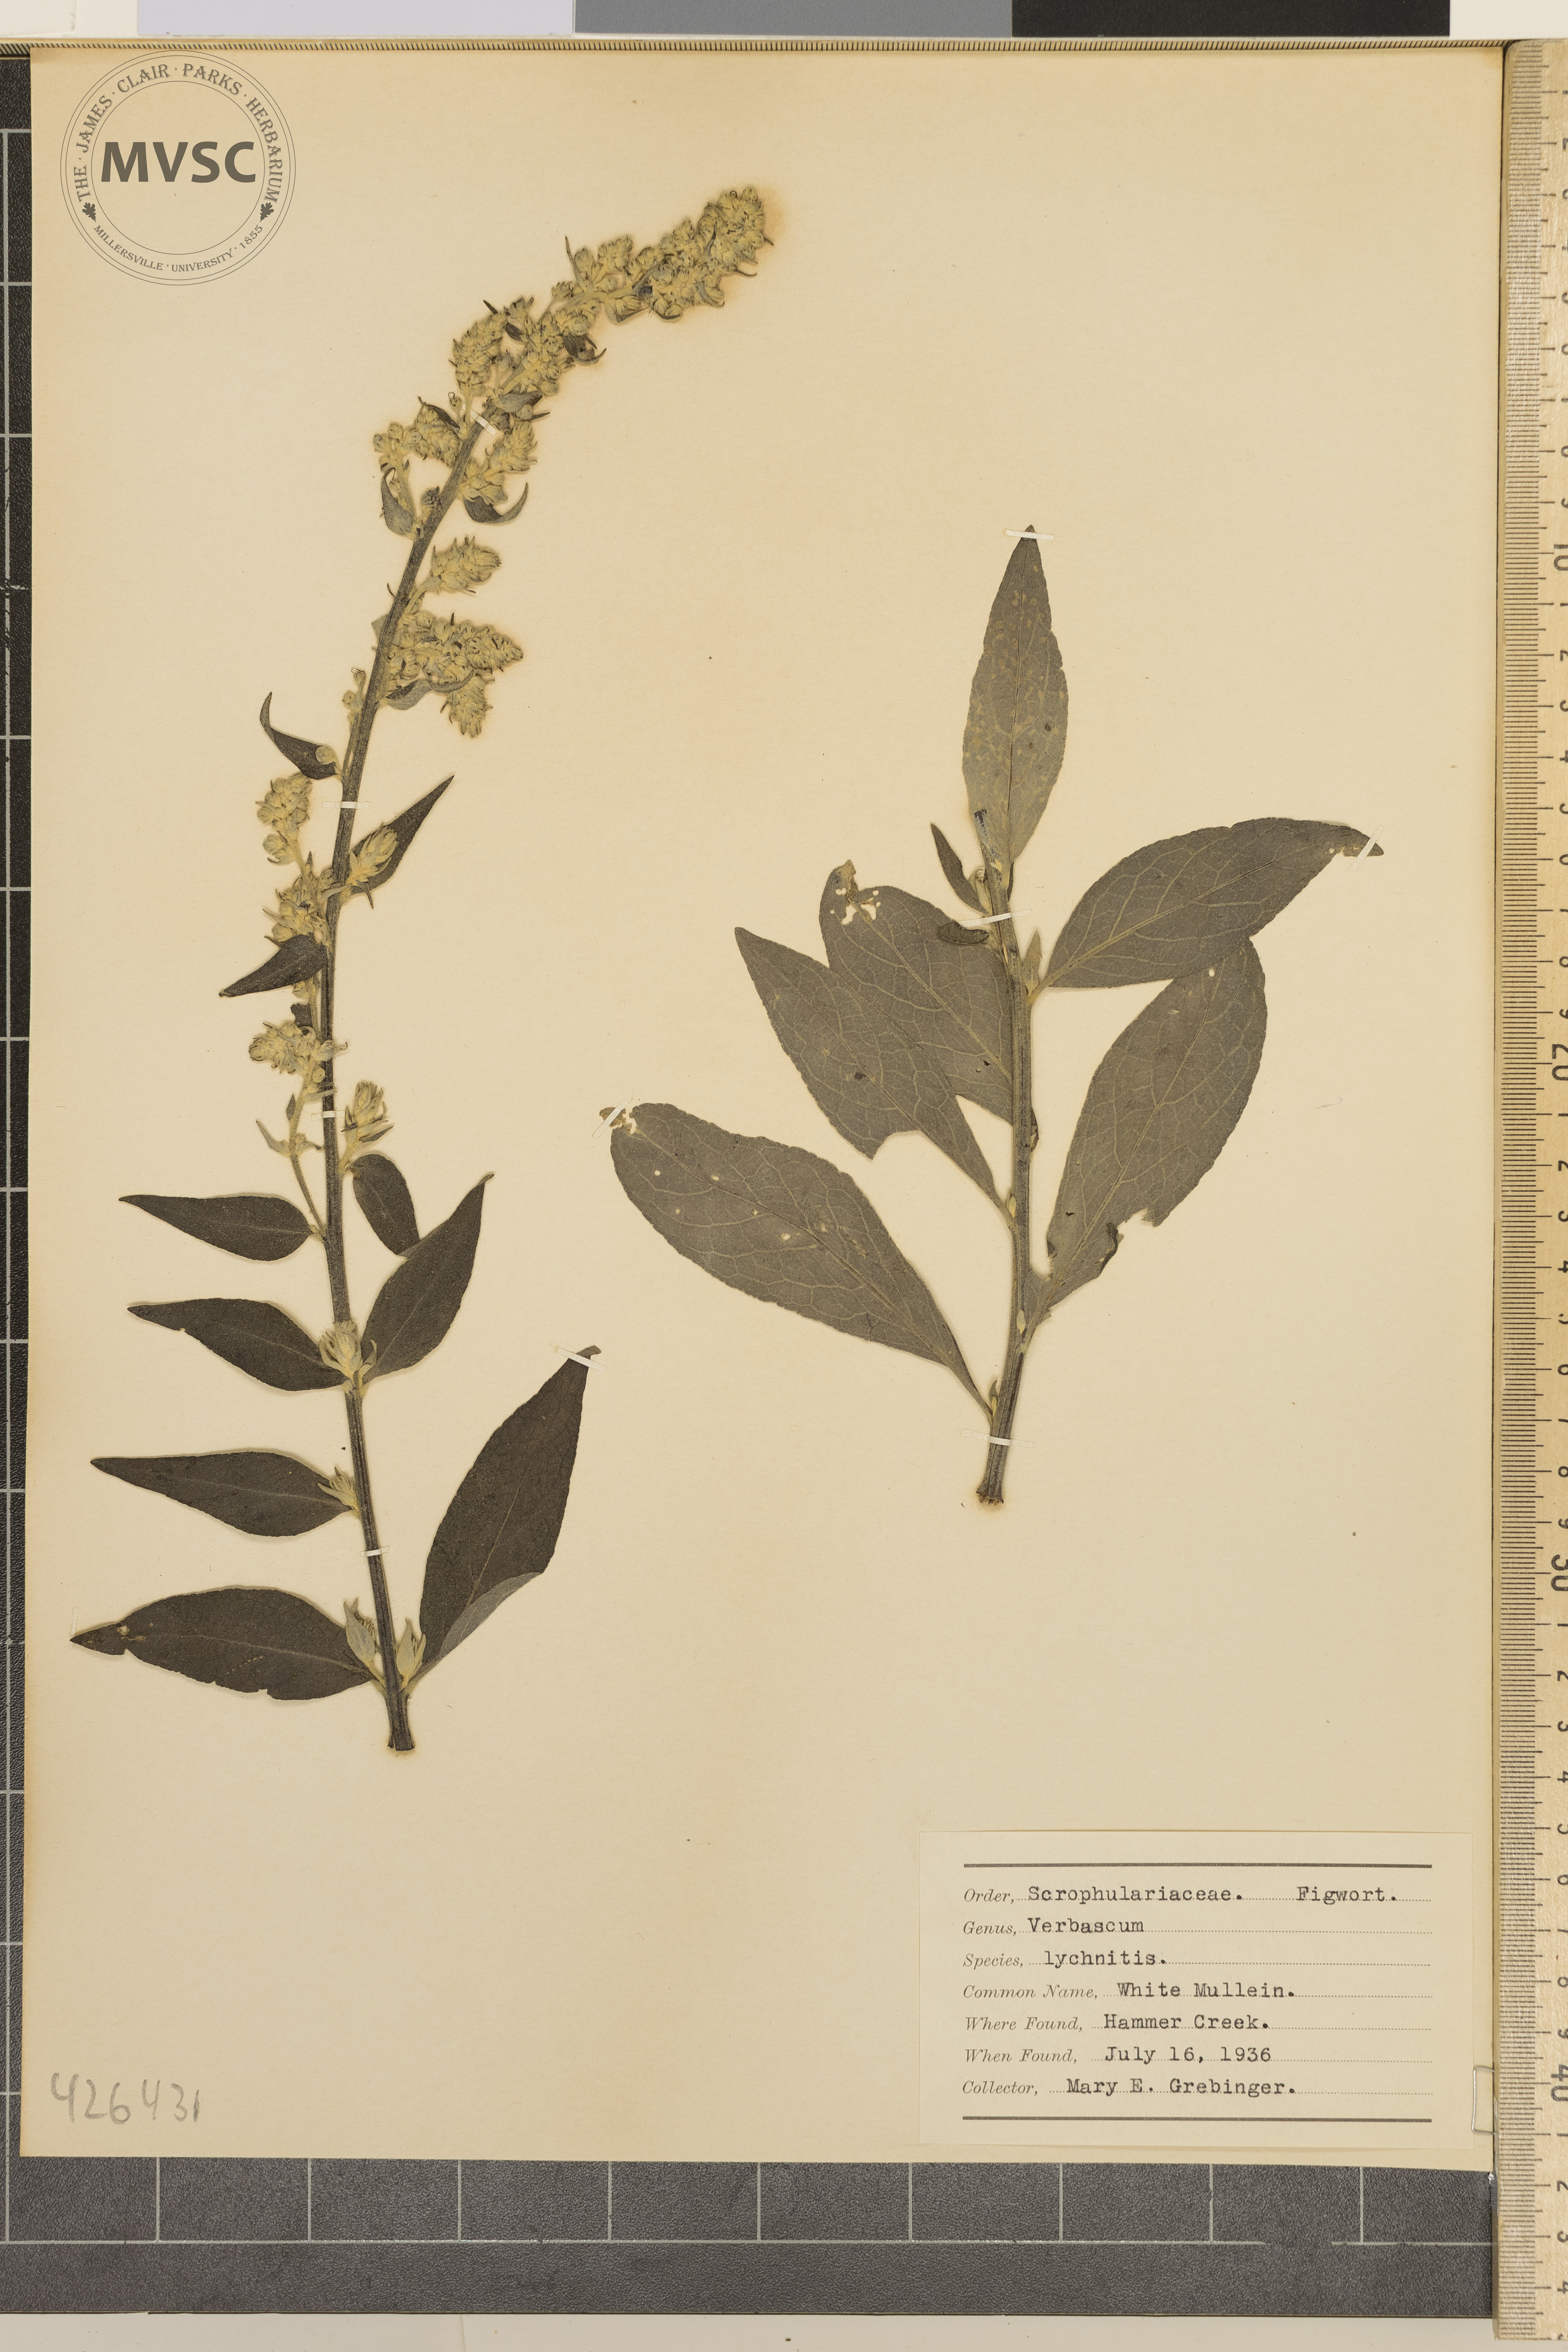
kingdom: Plantae
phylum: Tracheophyta
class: Magnoliopsida
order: Lamiales
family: Scrophulariaceae
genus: Verbascum
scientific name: Verbascum lychnitis
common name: White mullein
